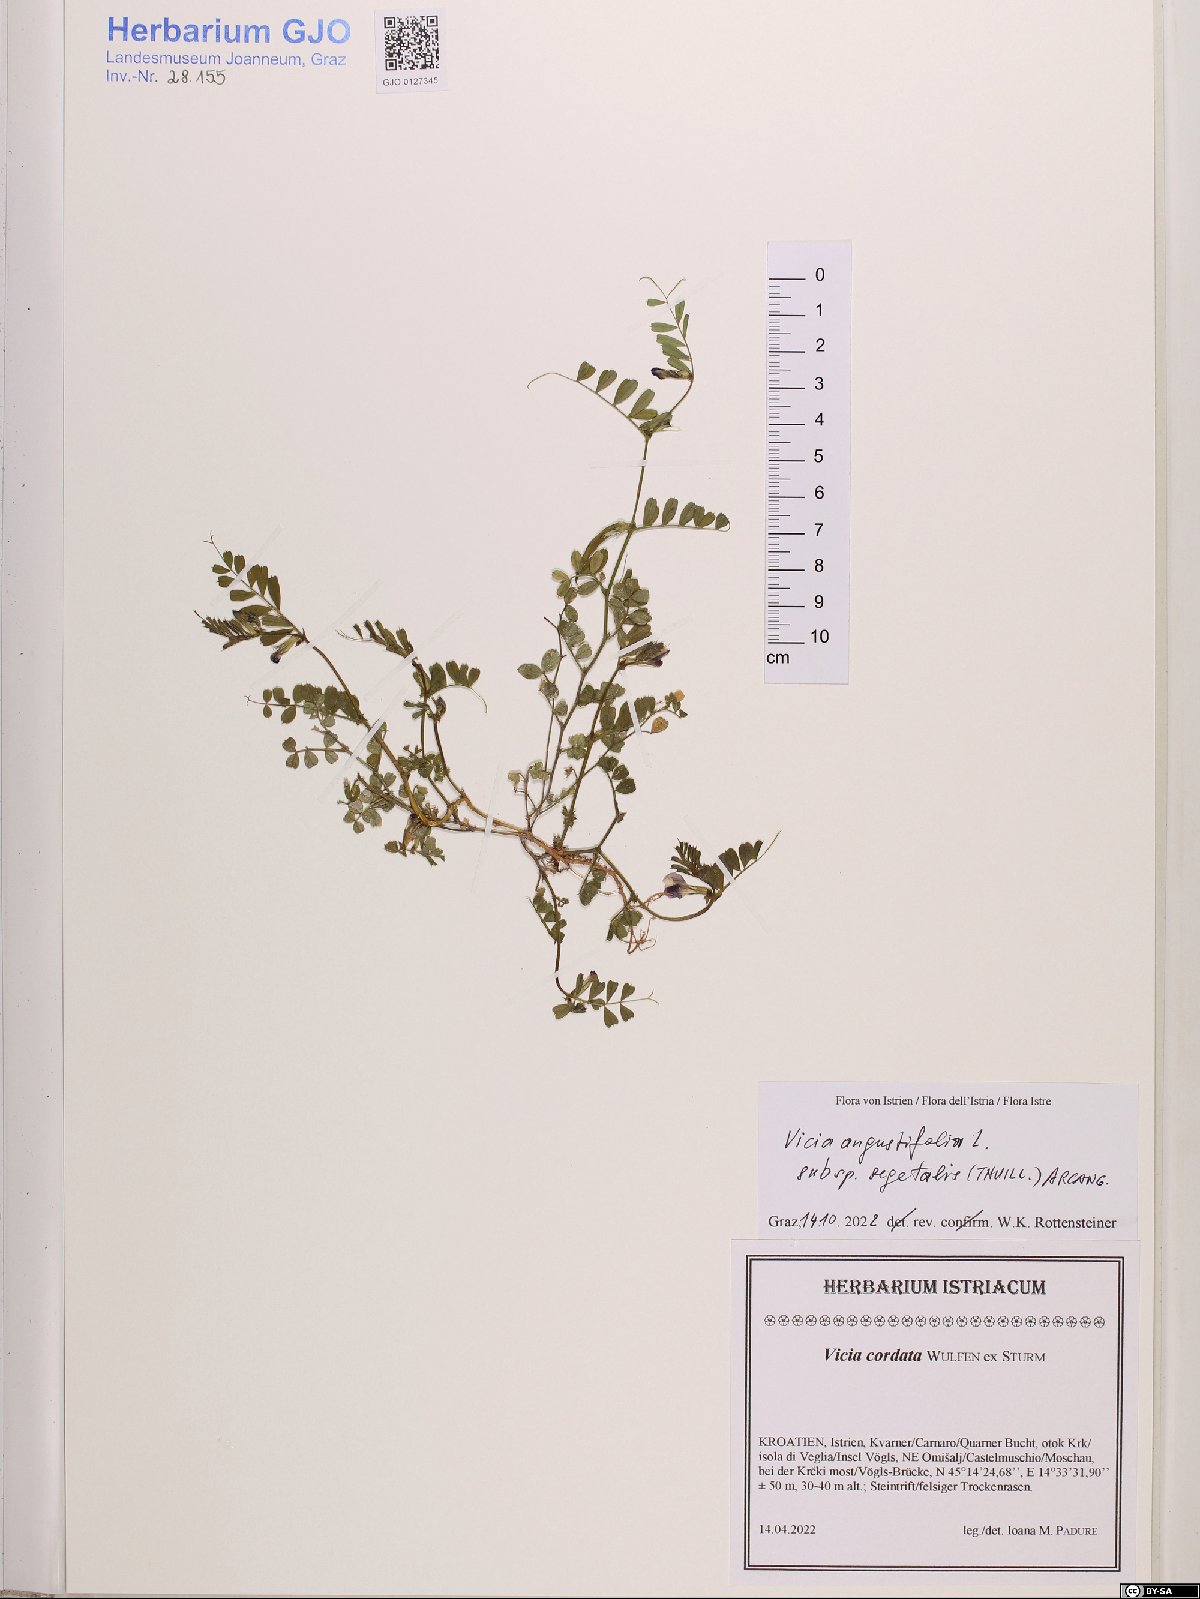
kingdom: Plantae
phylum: Tracheophyta
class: Magnoliopsida
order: Fabales
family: Fabaceae
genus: Vicia
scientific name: Vicia sativa
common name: Garden vetch
